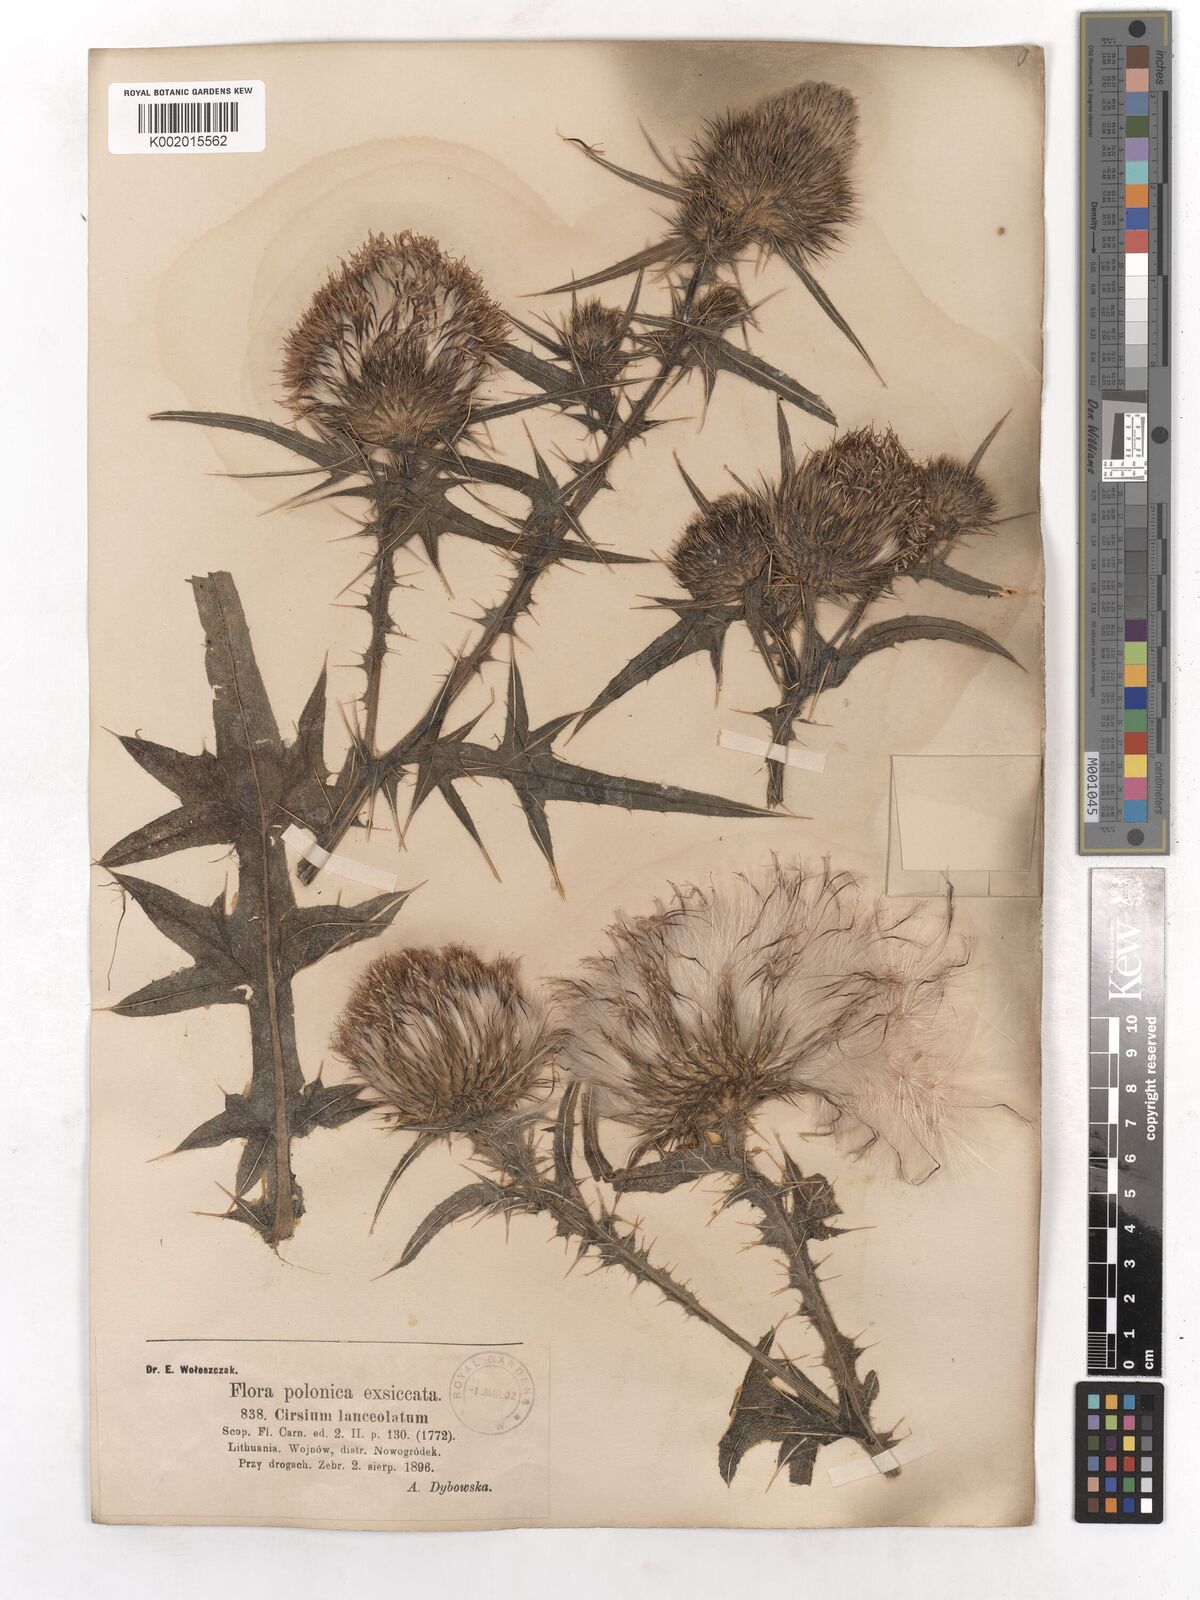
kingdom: Plantae
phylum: Tracheophyta
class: Magnoliopsida
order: Asterales
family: Asteraceae
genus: Cirsium
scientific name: Cirsium vulgare
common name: Bull thistle
